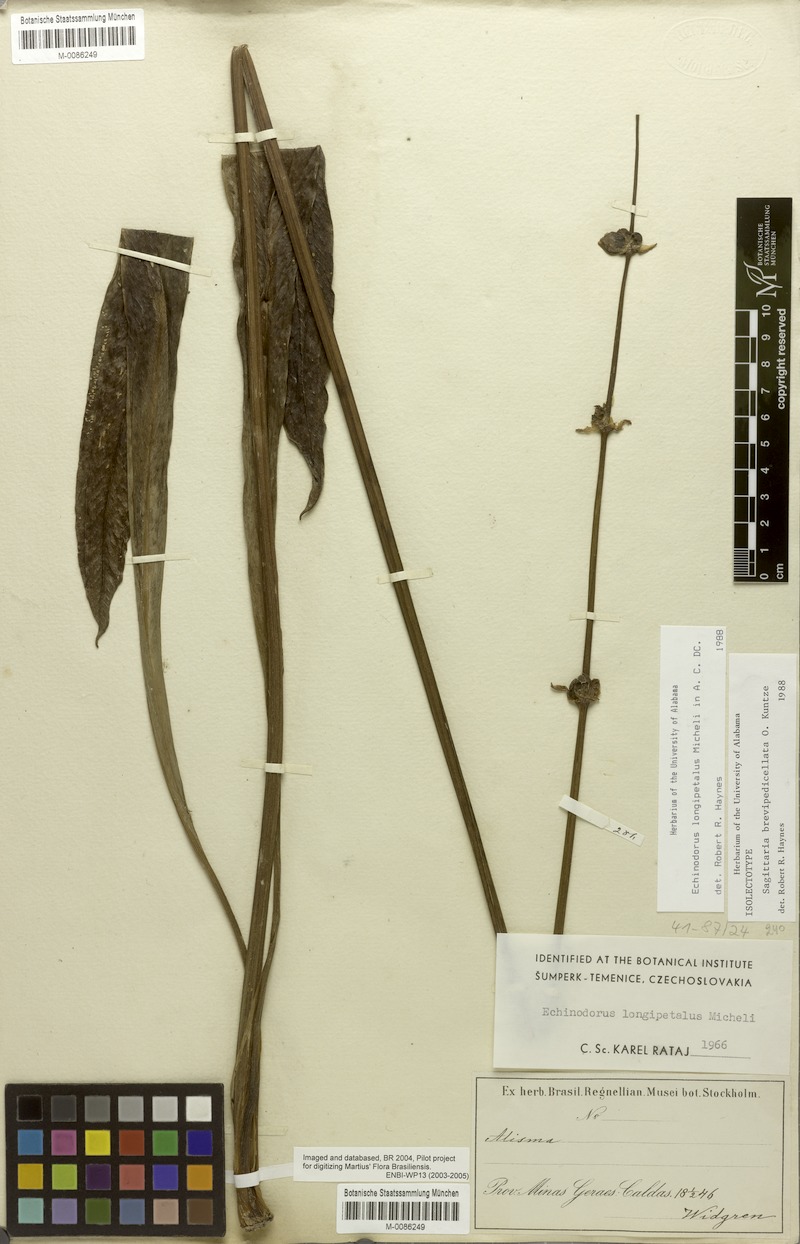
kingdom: Plantae
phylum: Tracheophyta
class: Liliopsida
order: Alismatales
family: Alismataceae
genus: Sagittaria
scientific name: Sagittaria rhombifolia
